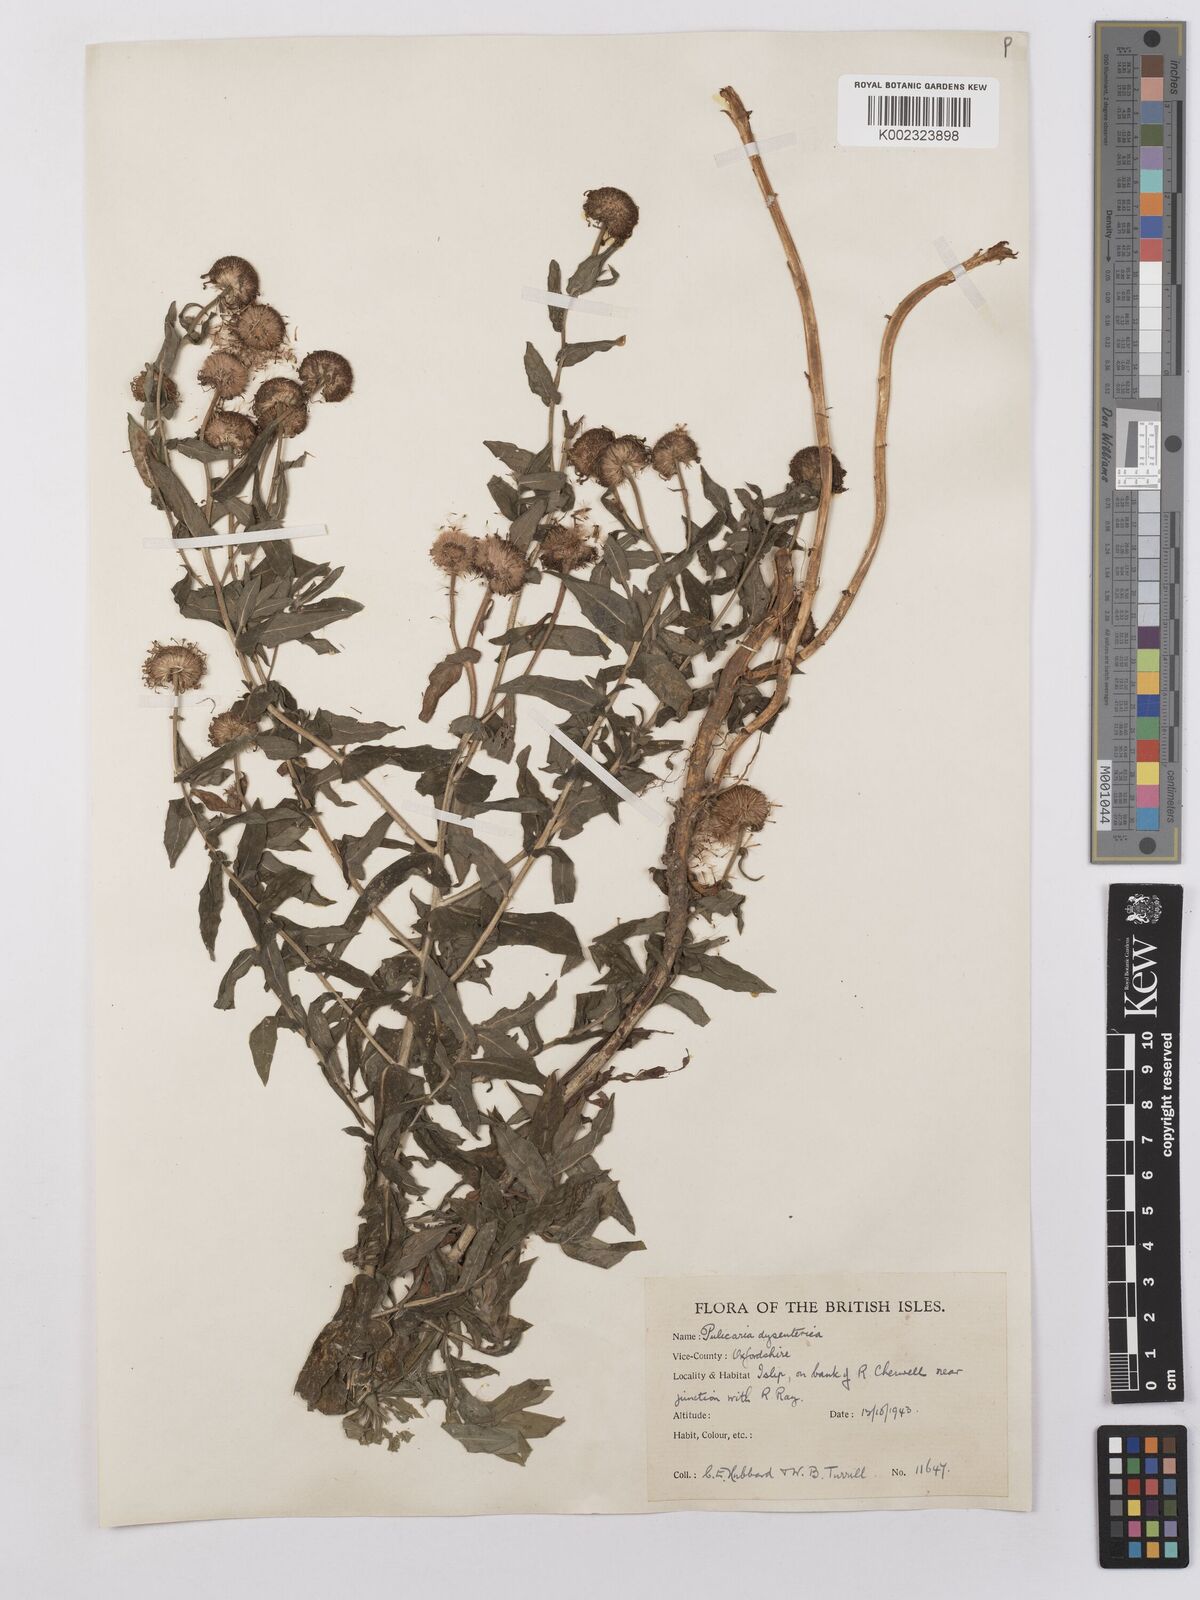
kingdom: Plantae
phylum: Tracheophyta
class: Magnoliopsida
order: Asterales
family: Asteraceae
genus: Pulicaria
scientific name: Pulicaria dysenterica
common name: Common fleabane
